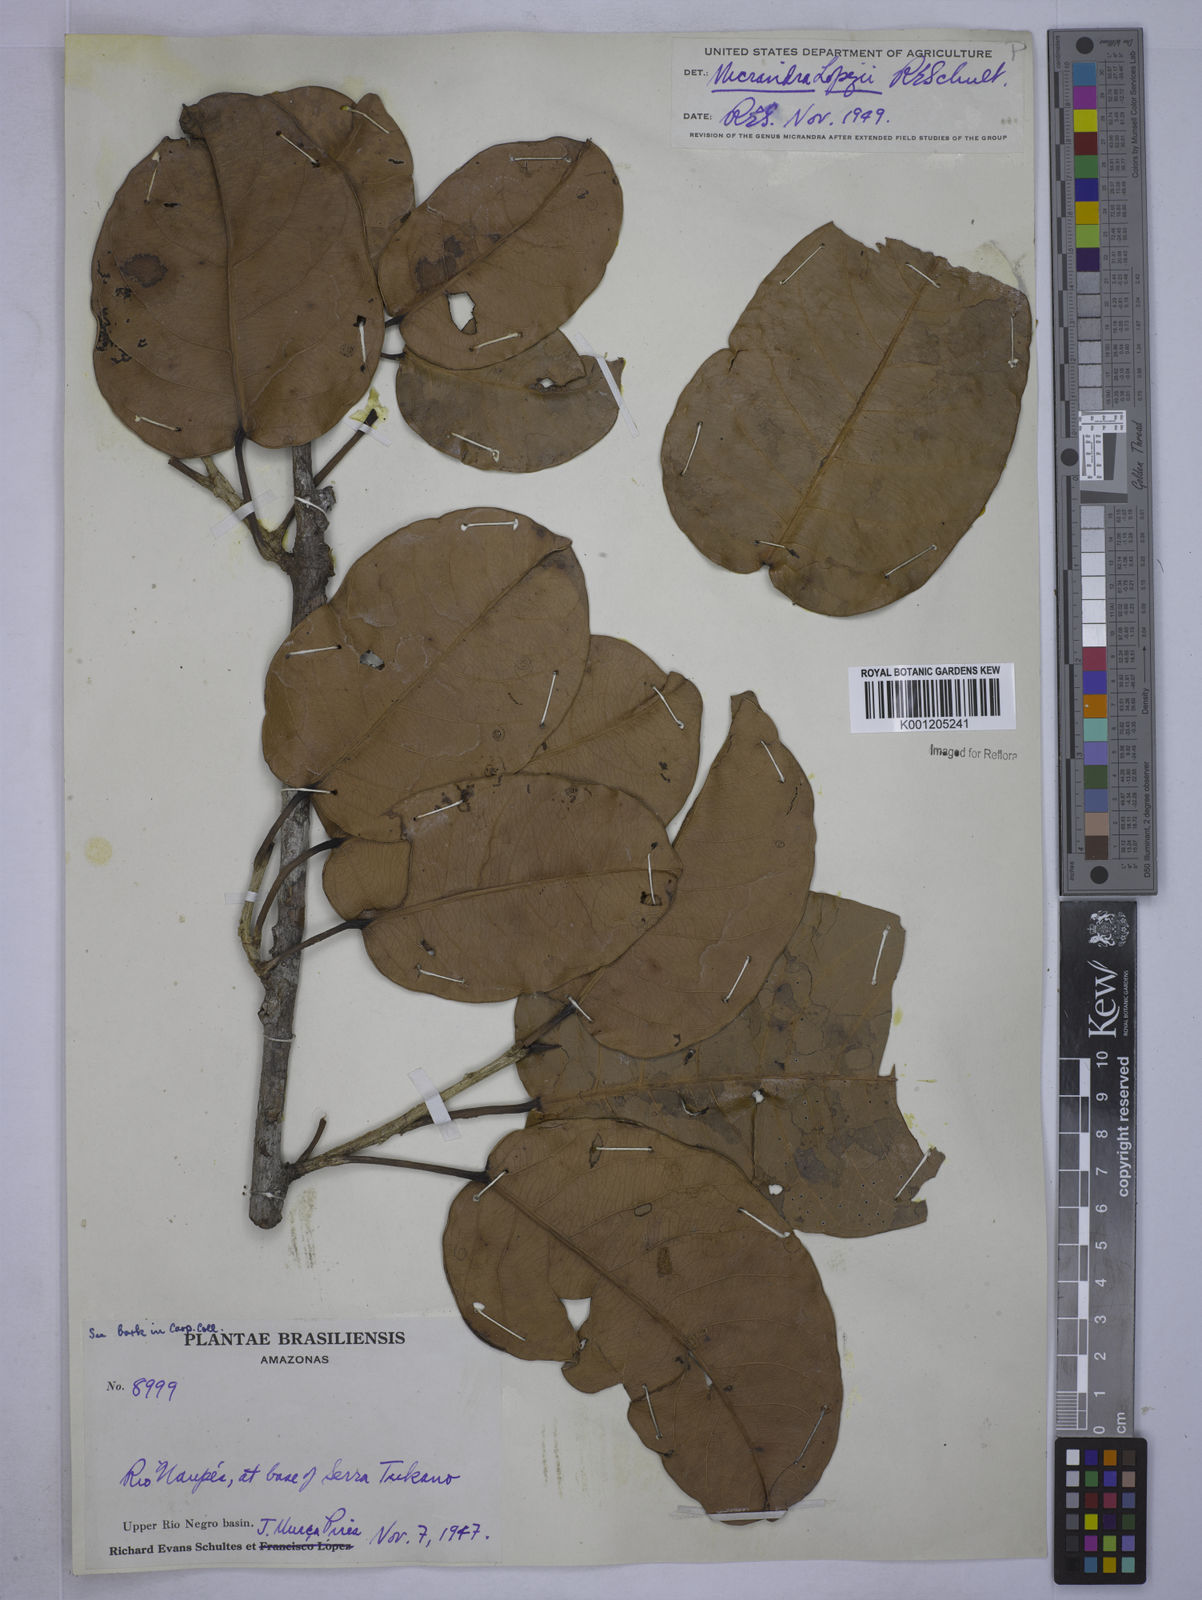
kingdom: Plantae
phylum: Tracheophyta
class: Magnoliopsida
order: Malpighiales
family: Euphorbiaceae
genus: Micrandra
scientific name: Micrandra lopezii
